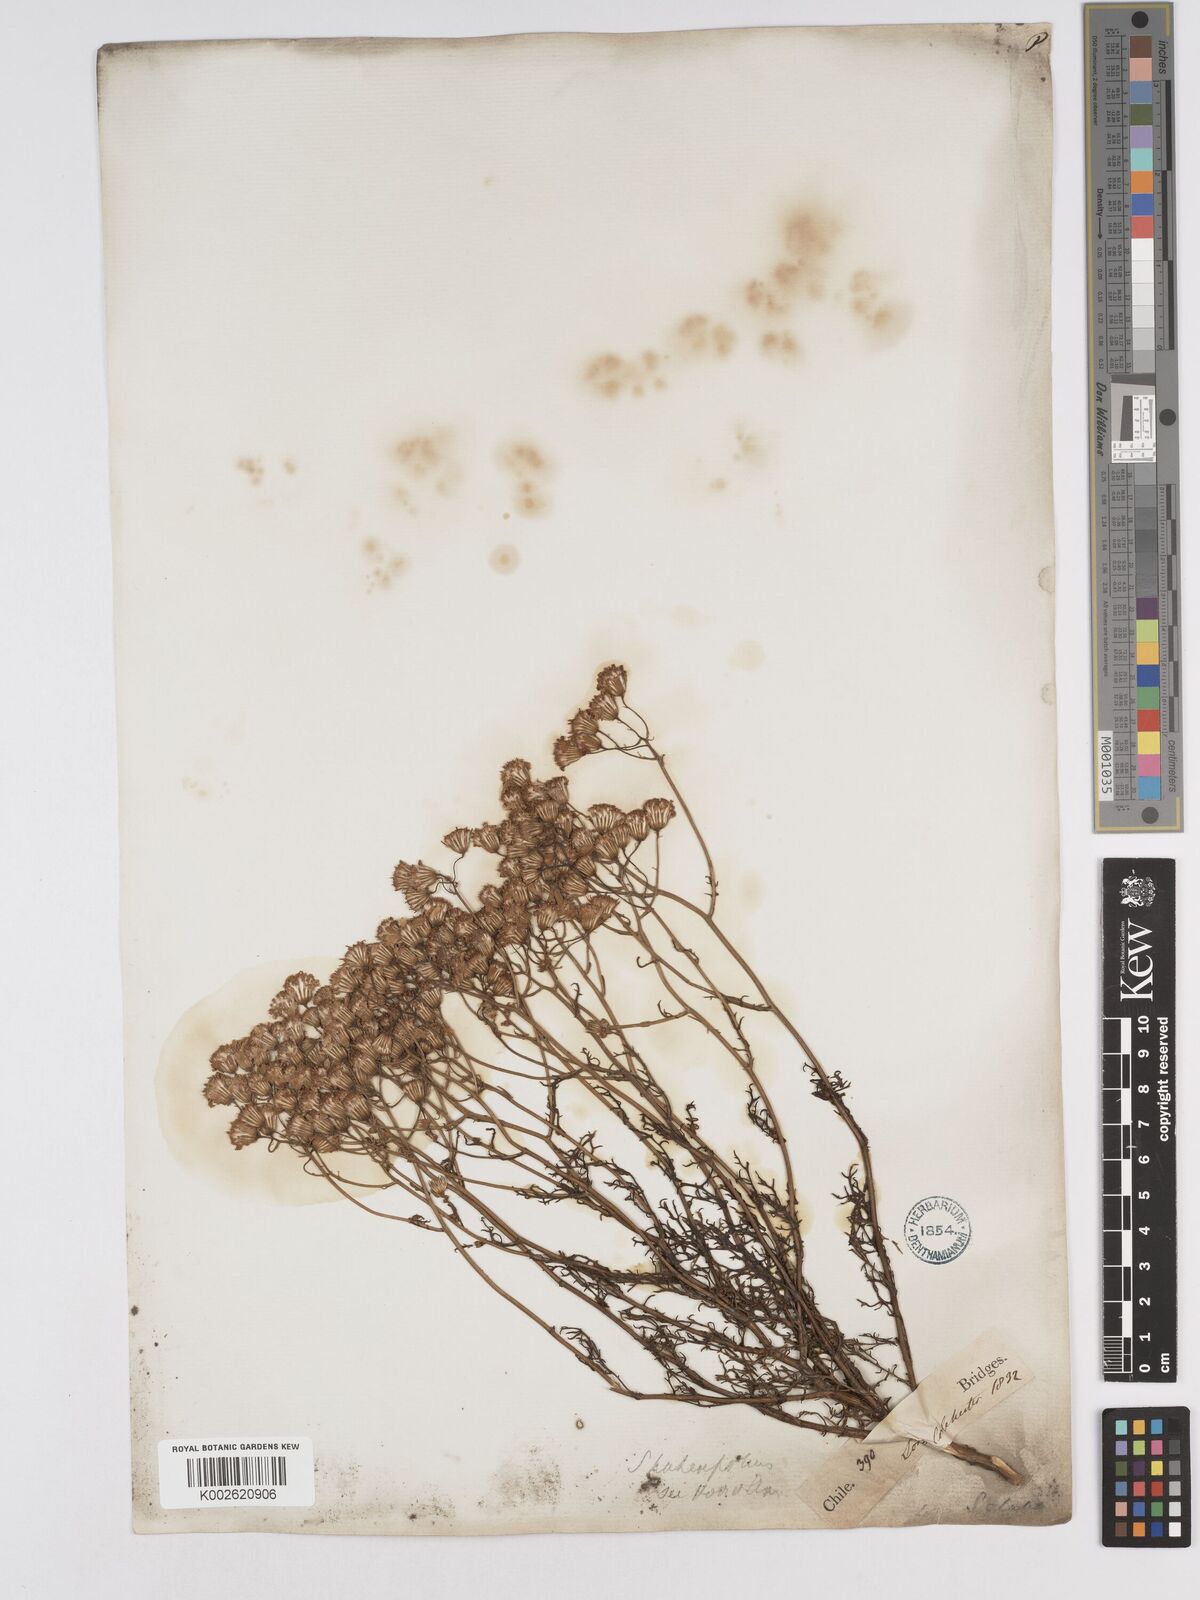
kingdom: Plantae
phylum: Tracheophyta
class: Magnoliopsida
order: Asterales
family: Asteraceae
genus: Senecio
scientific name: Senecio glaber
